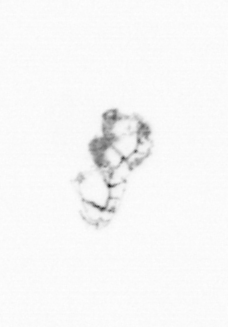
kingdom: Animalia
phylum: Cnidaria
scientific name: Cnidaria
